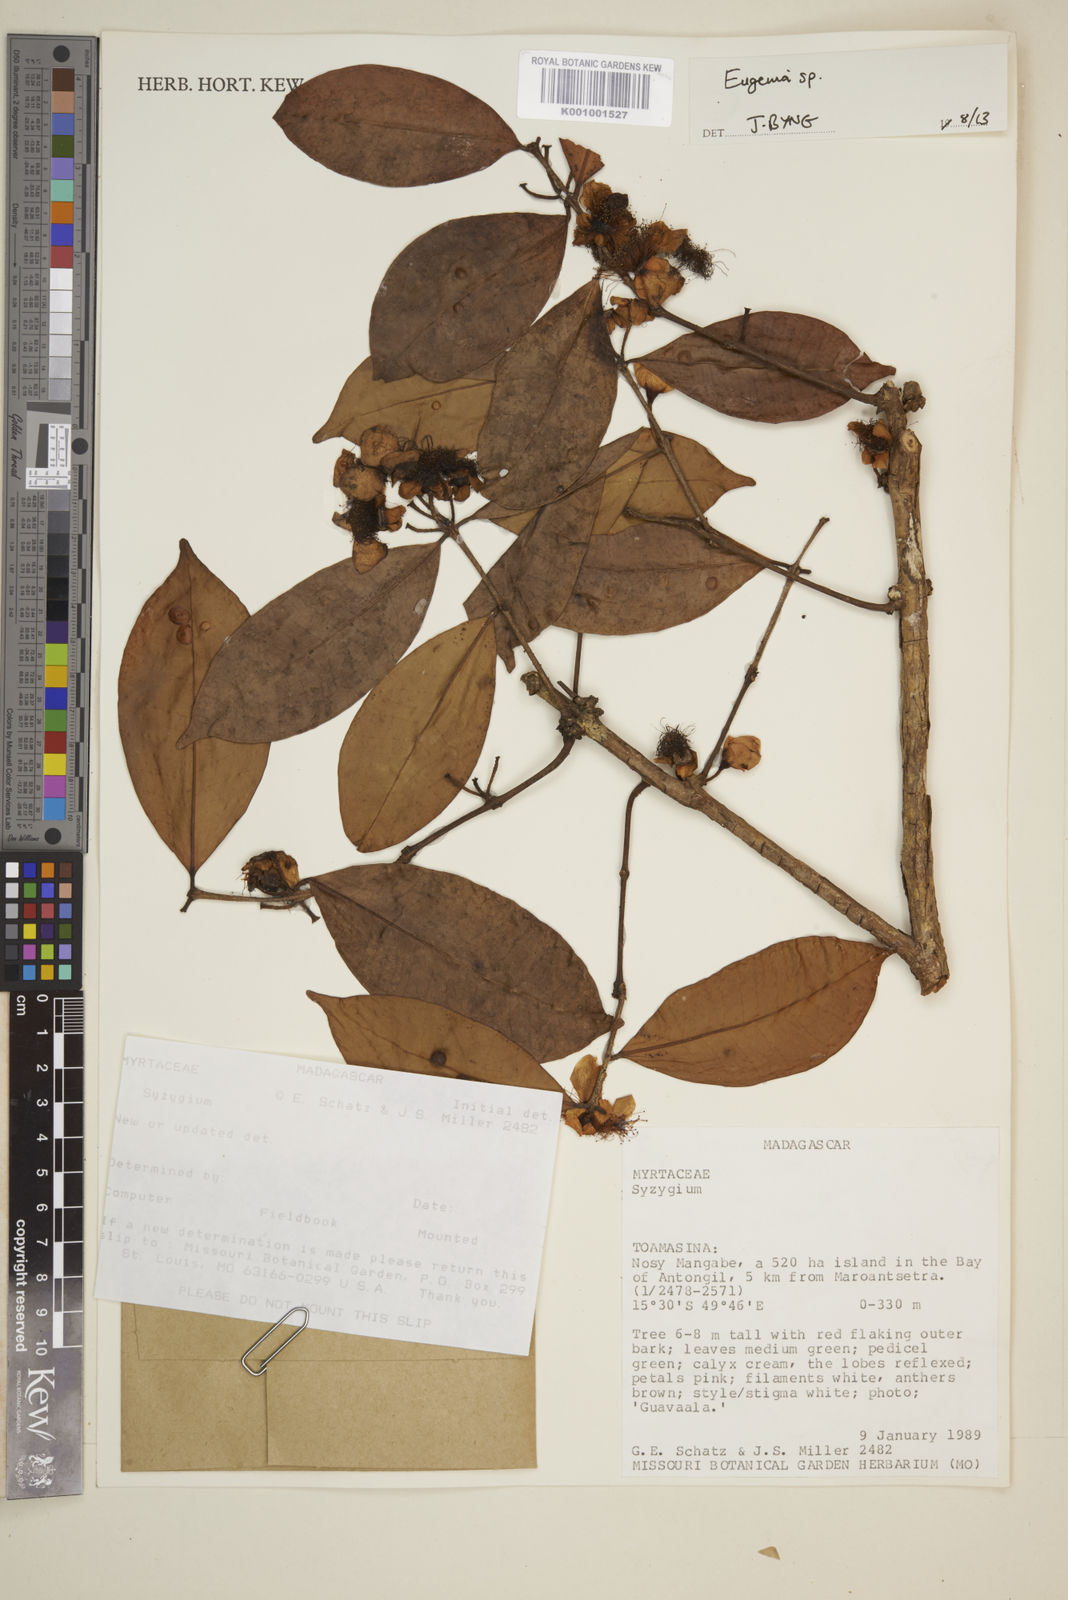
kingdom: Plantae
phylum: Tracheophyta
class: Magnoliopsida
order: Myrtales
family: Myrtaceae
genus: Eugenia
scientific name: Eugenia
